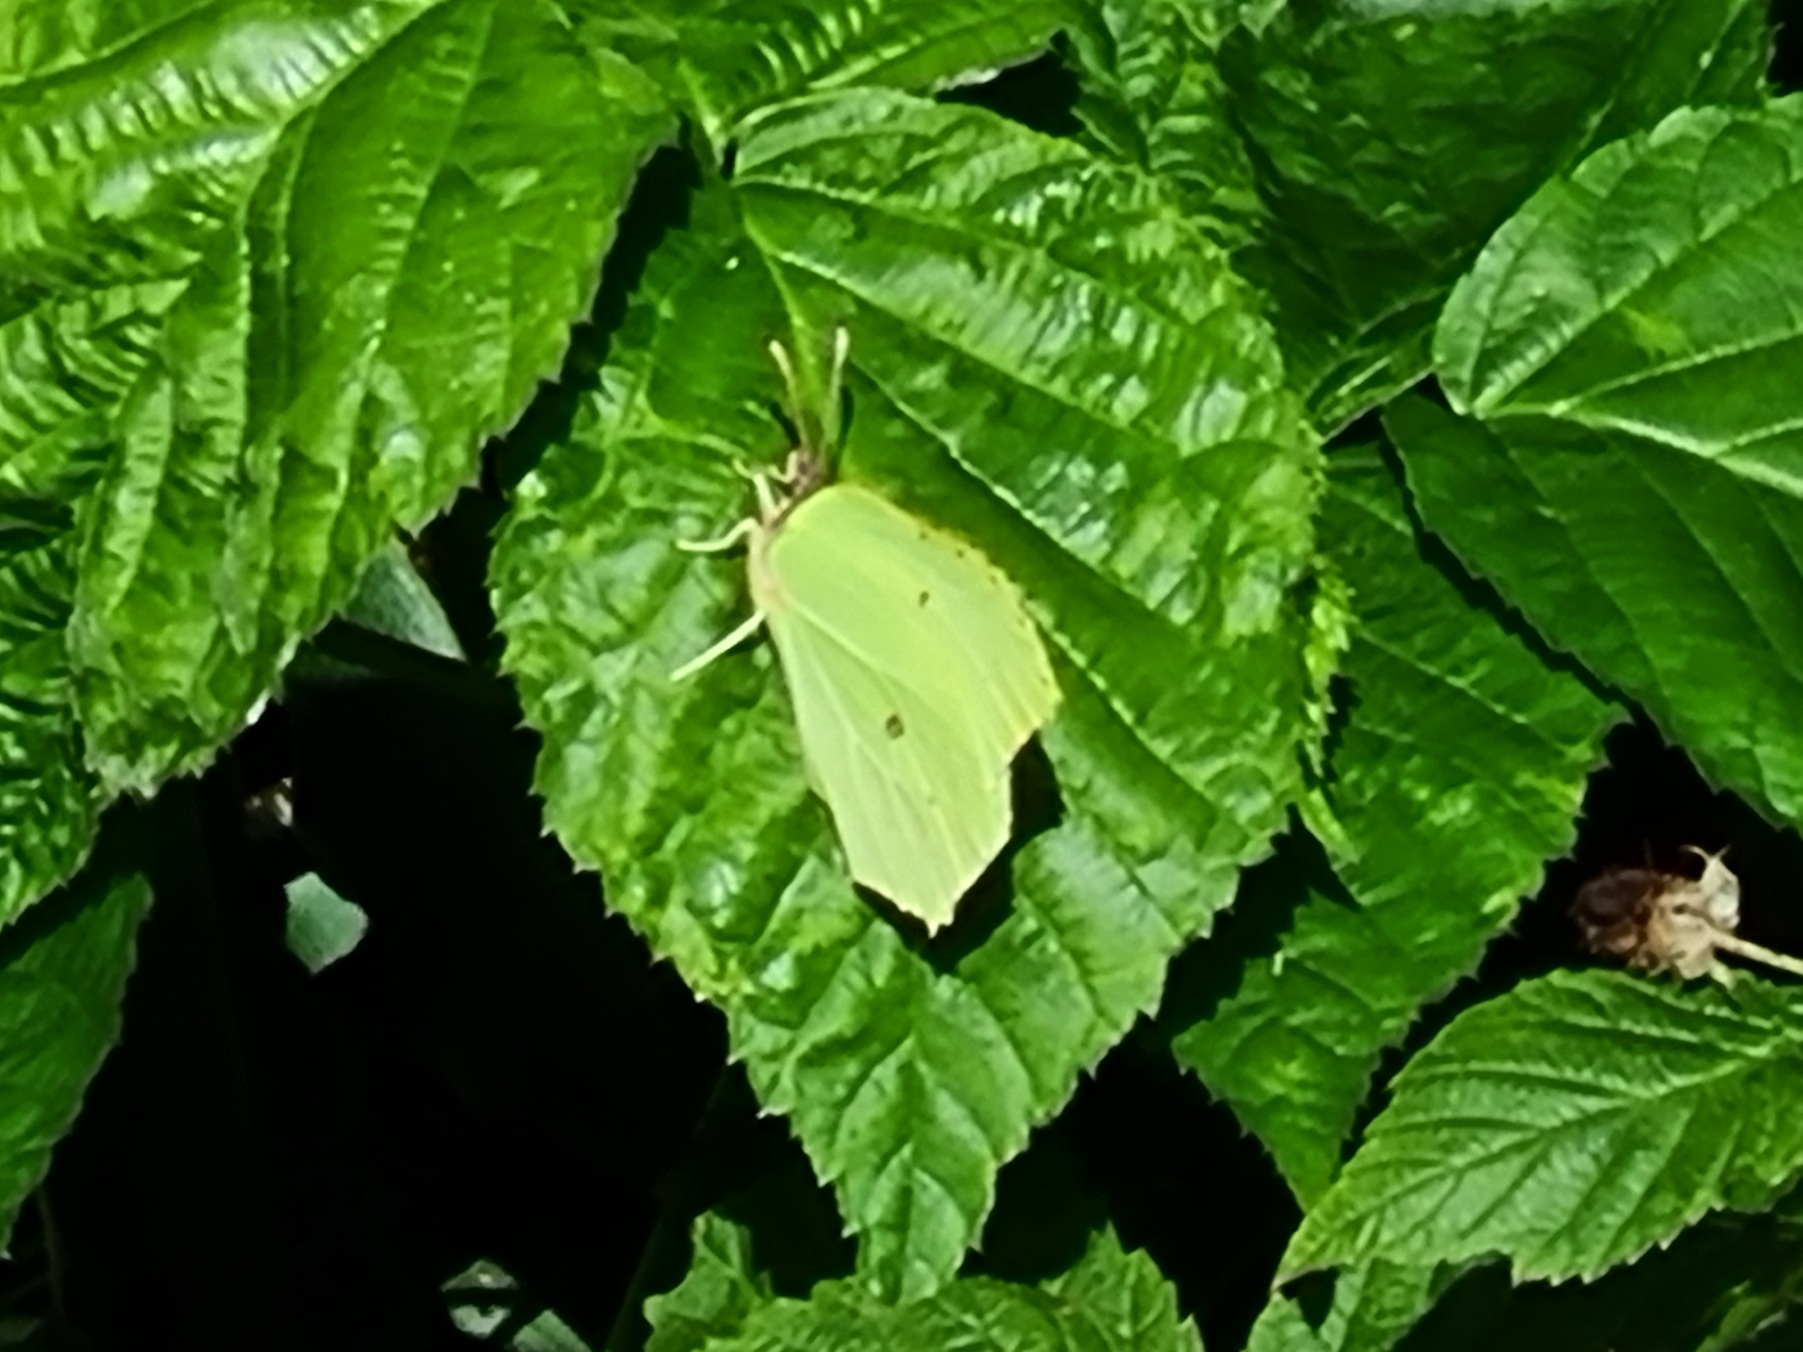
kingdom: Animalia
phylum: Arthropoda
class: Insecta
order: Lepidoptera
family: Pieridae
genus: Gonepteryx
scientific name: Gonepteryx rhamni
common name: Citronsommerfugl
